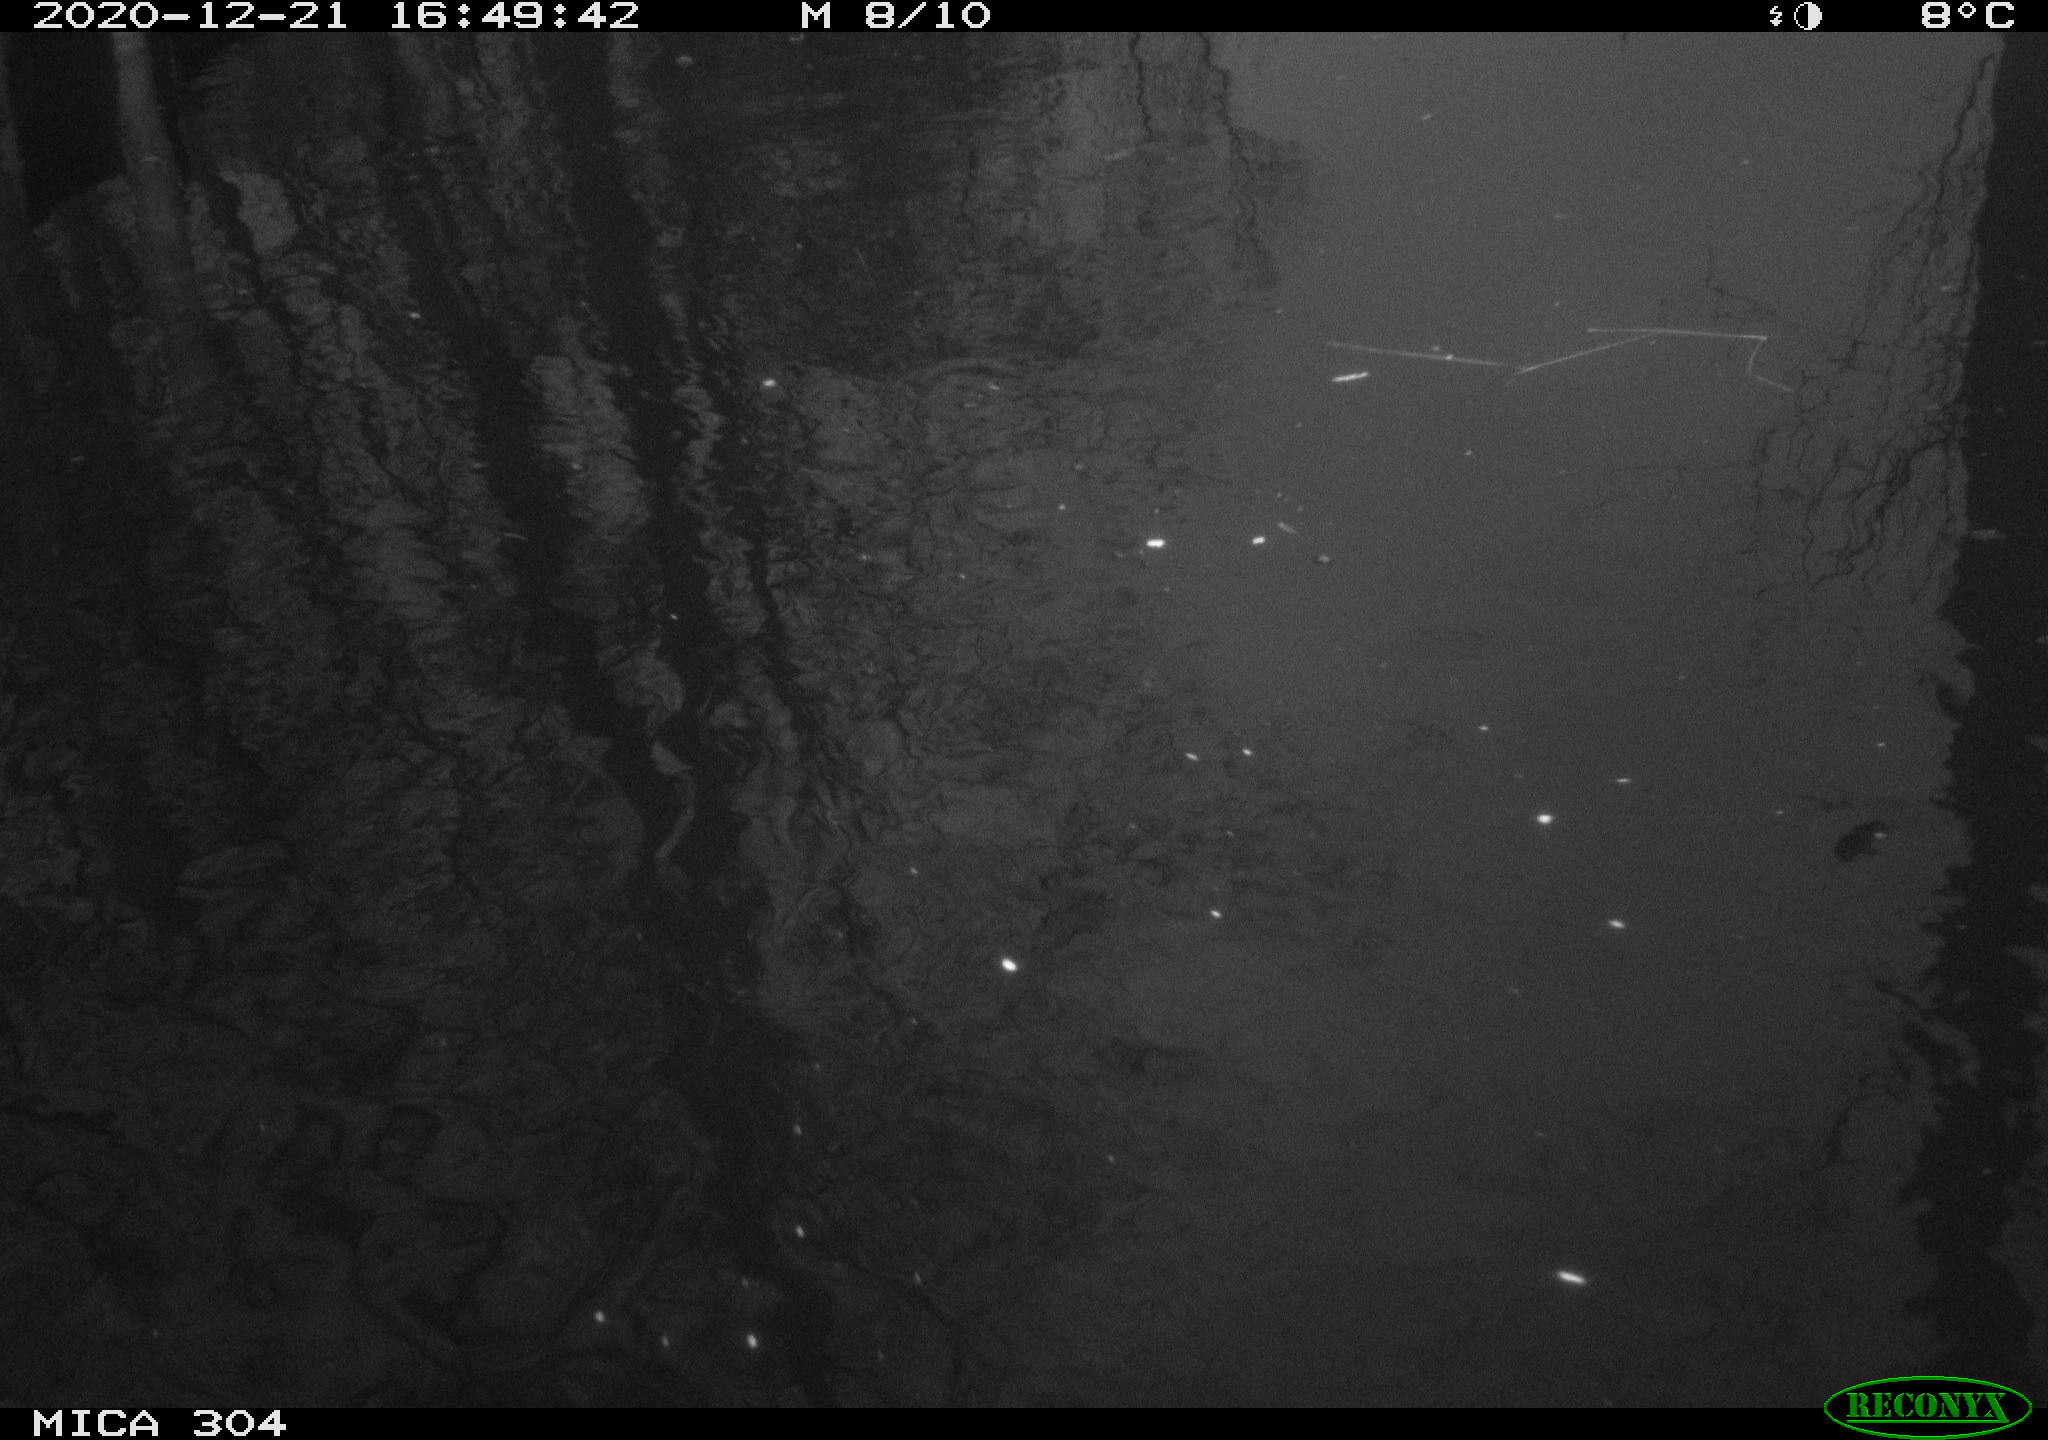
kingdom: Animalia
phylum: Chordata
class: Aves
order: Gruiformes
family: Rallidae
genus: Gallinula
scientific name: Gallinula chloropus
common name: Common moorhen
